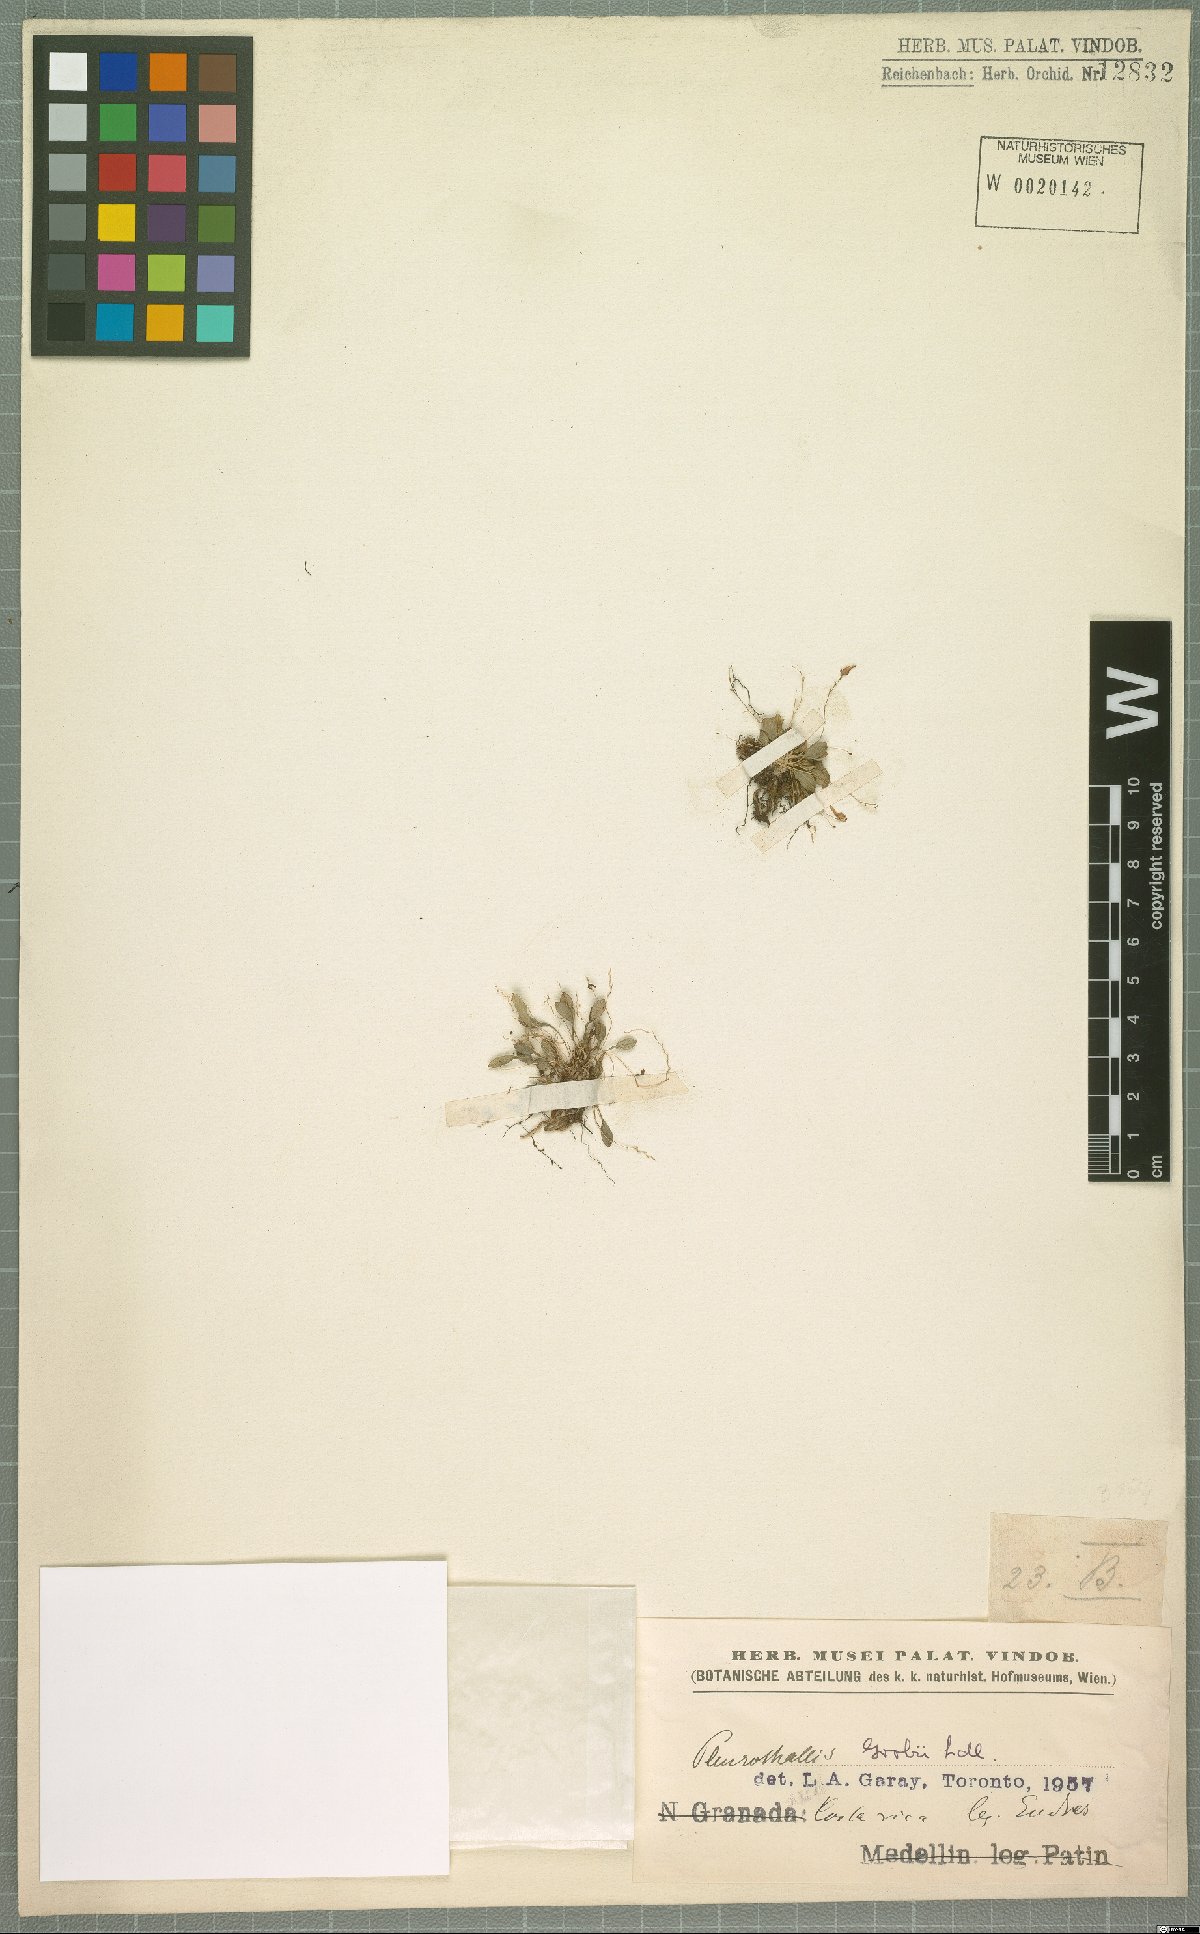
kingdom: Plantae
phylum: Tracheophyta
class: Liliopsida
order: Asparagales
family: Orchidaceae
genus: Specklinia
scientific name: Specklinia grobyi
